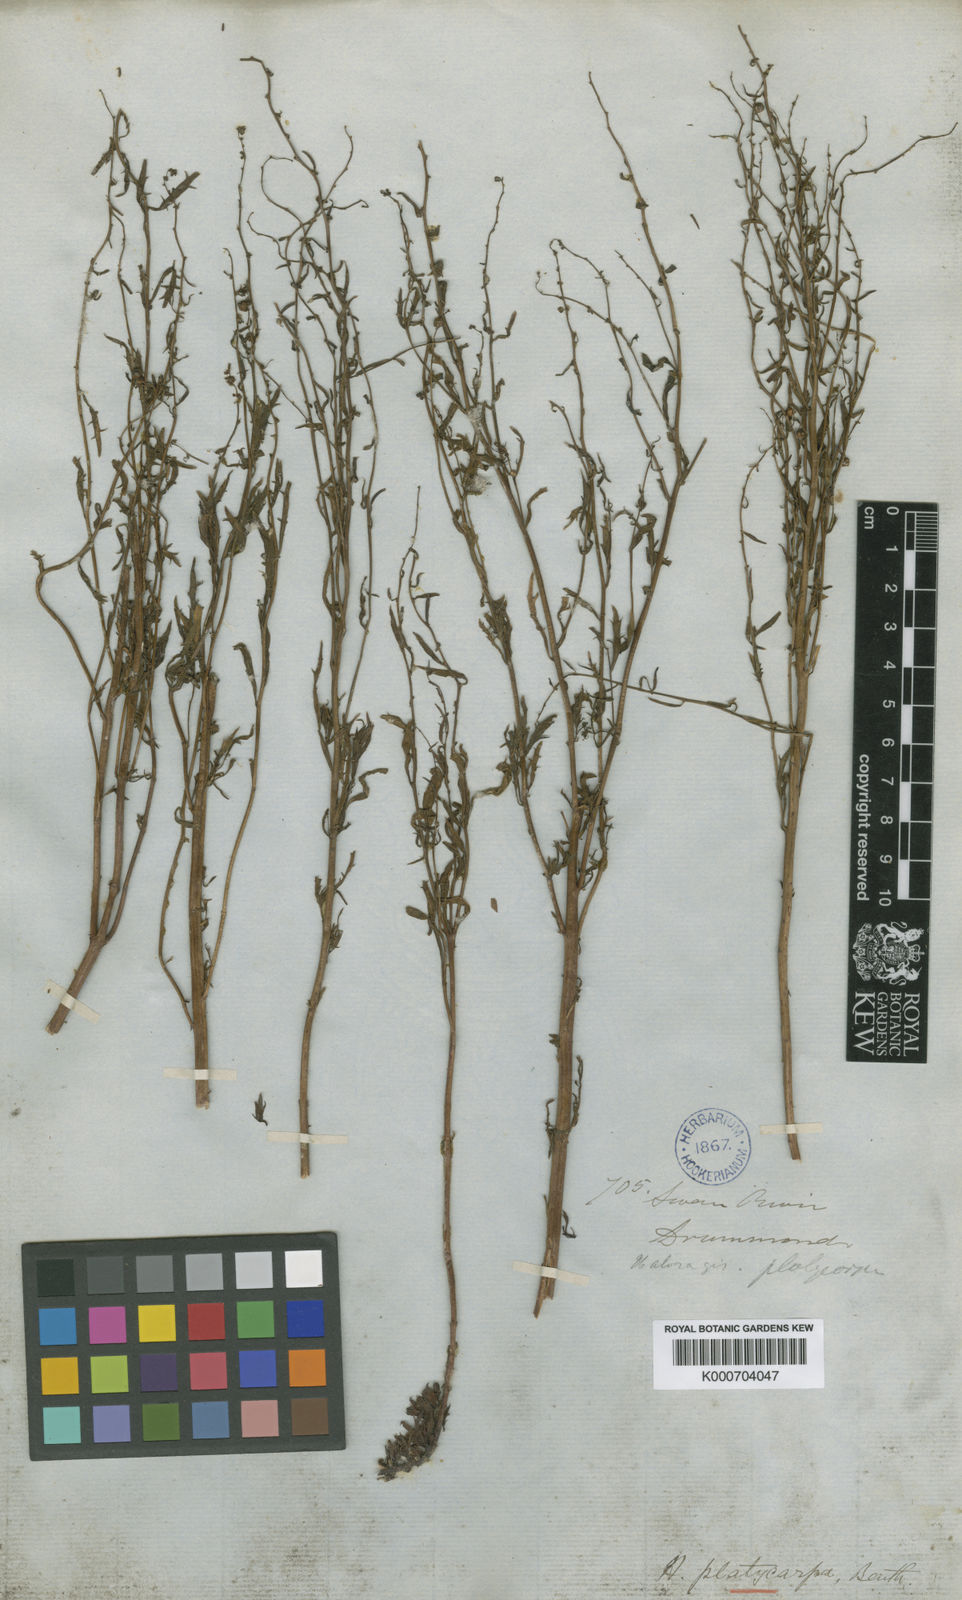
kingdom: Plantae
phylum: Tracheophyta
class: Magnoliopsida
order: Saxifragales
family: Haloragaceae
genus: Haloragis
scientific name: Haloragis platycarpa
